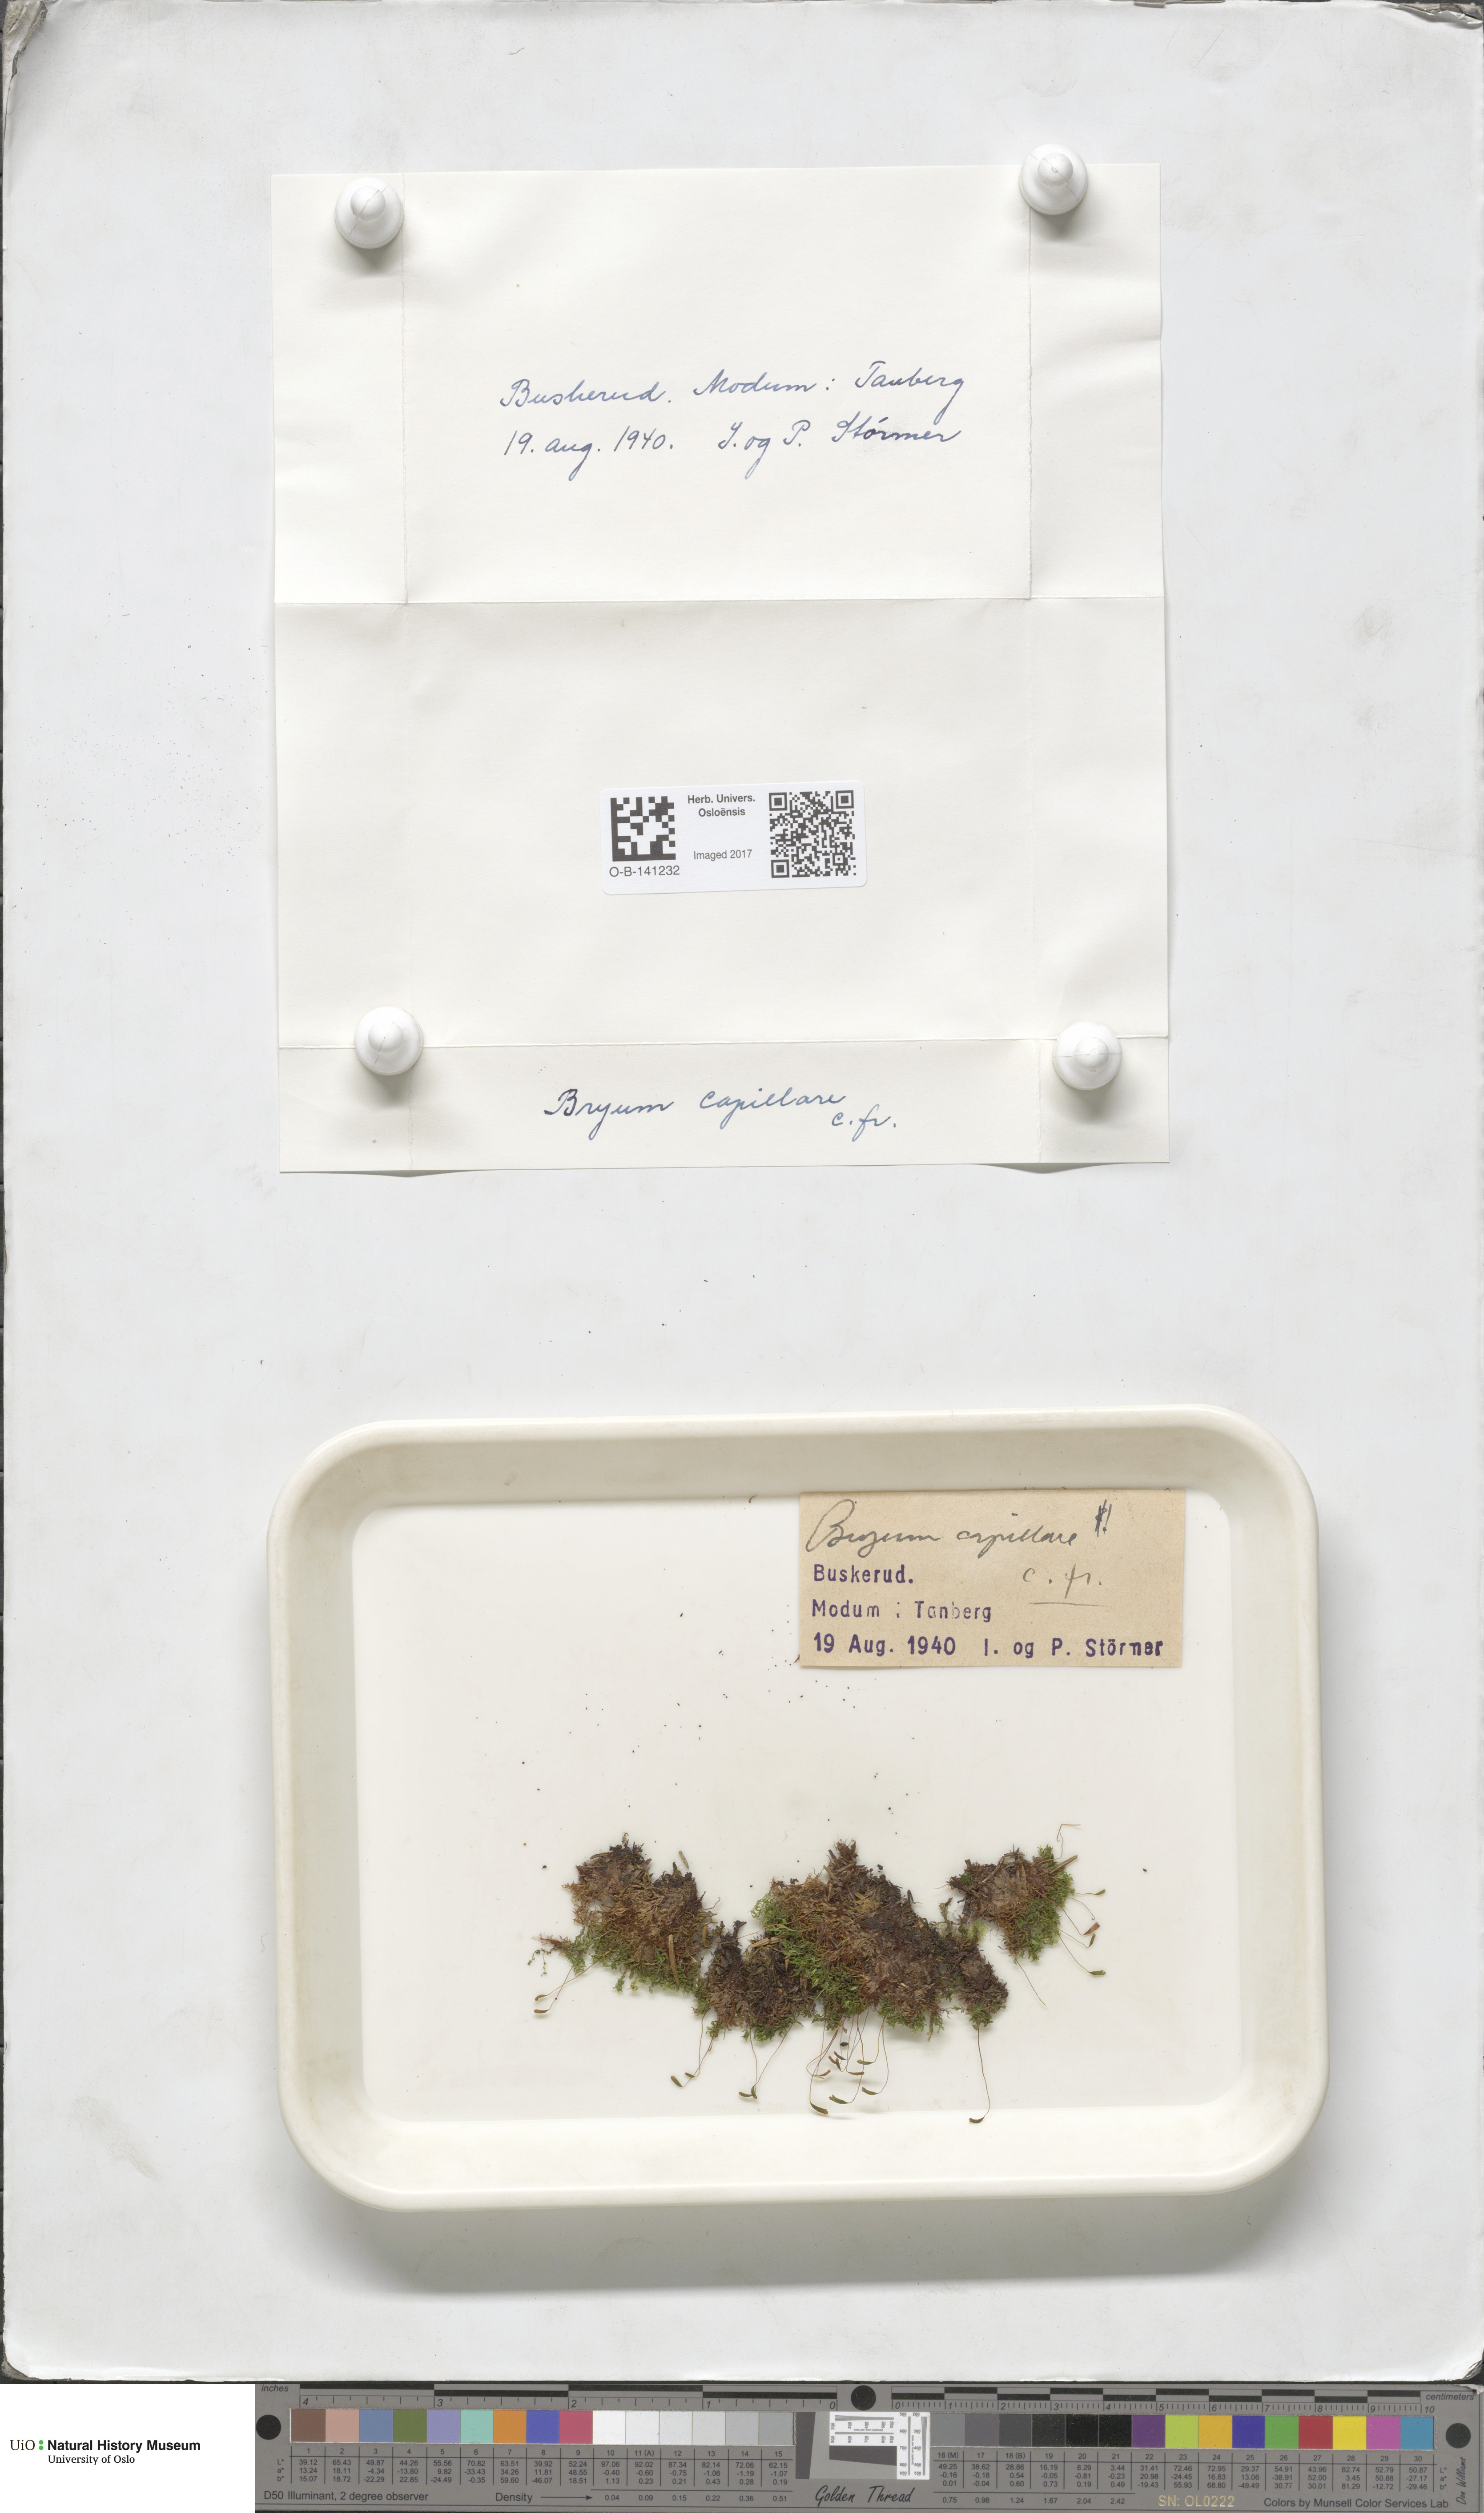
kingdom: Plantae
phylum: Bryophyta
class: Bryopsida
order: Bryales
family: Bryaceae
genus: Rosulabryum
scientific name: Rosulabryum capillare
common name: Capillary thread-moss
